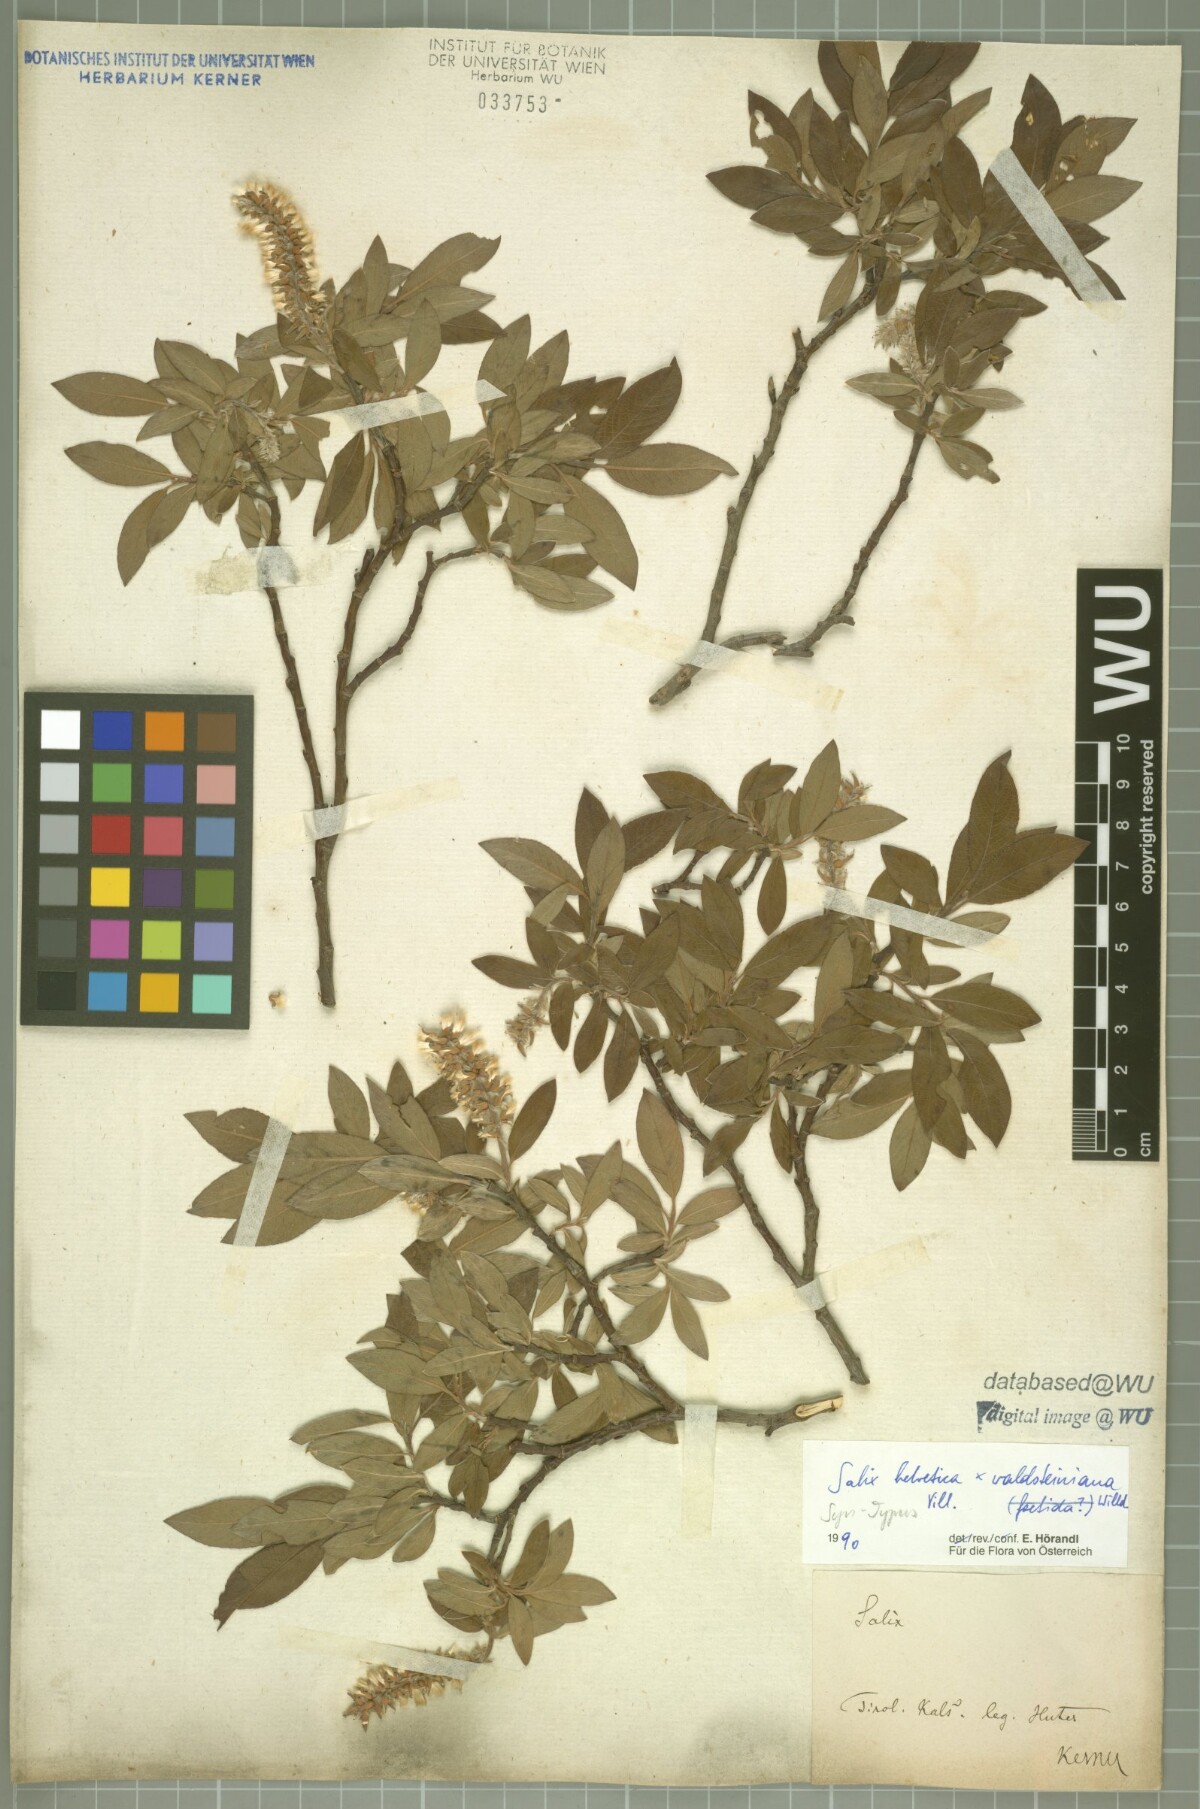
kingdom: Plantae
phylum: Tracheophyta
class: Magnoliopsida
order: Malpighiales
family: Salicaceae
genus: Salix
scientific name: Salix lapponum
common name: Downy willow
